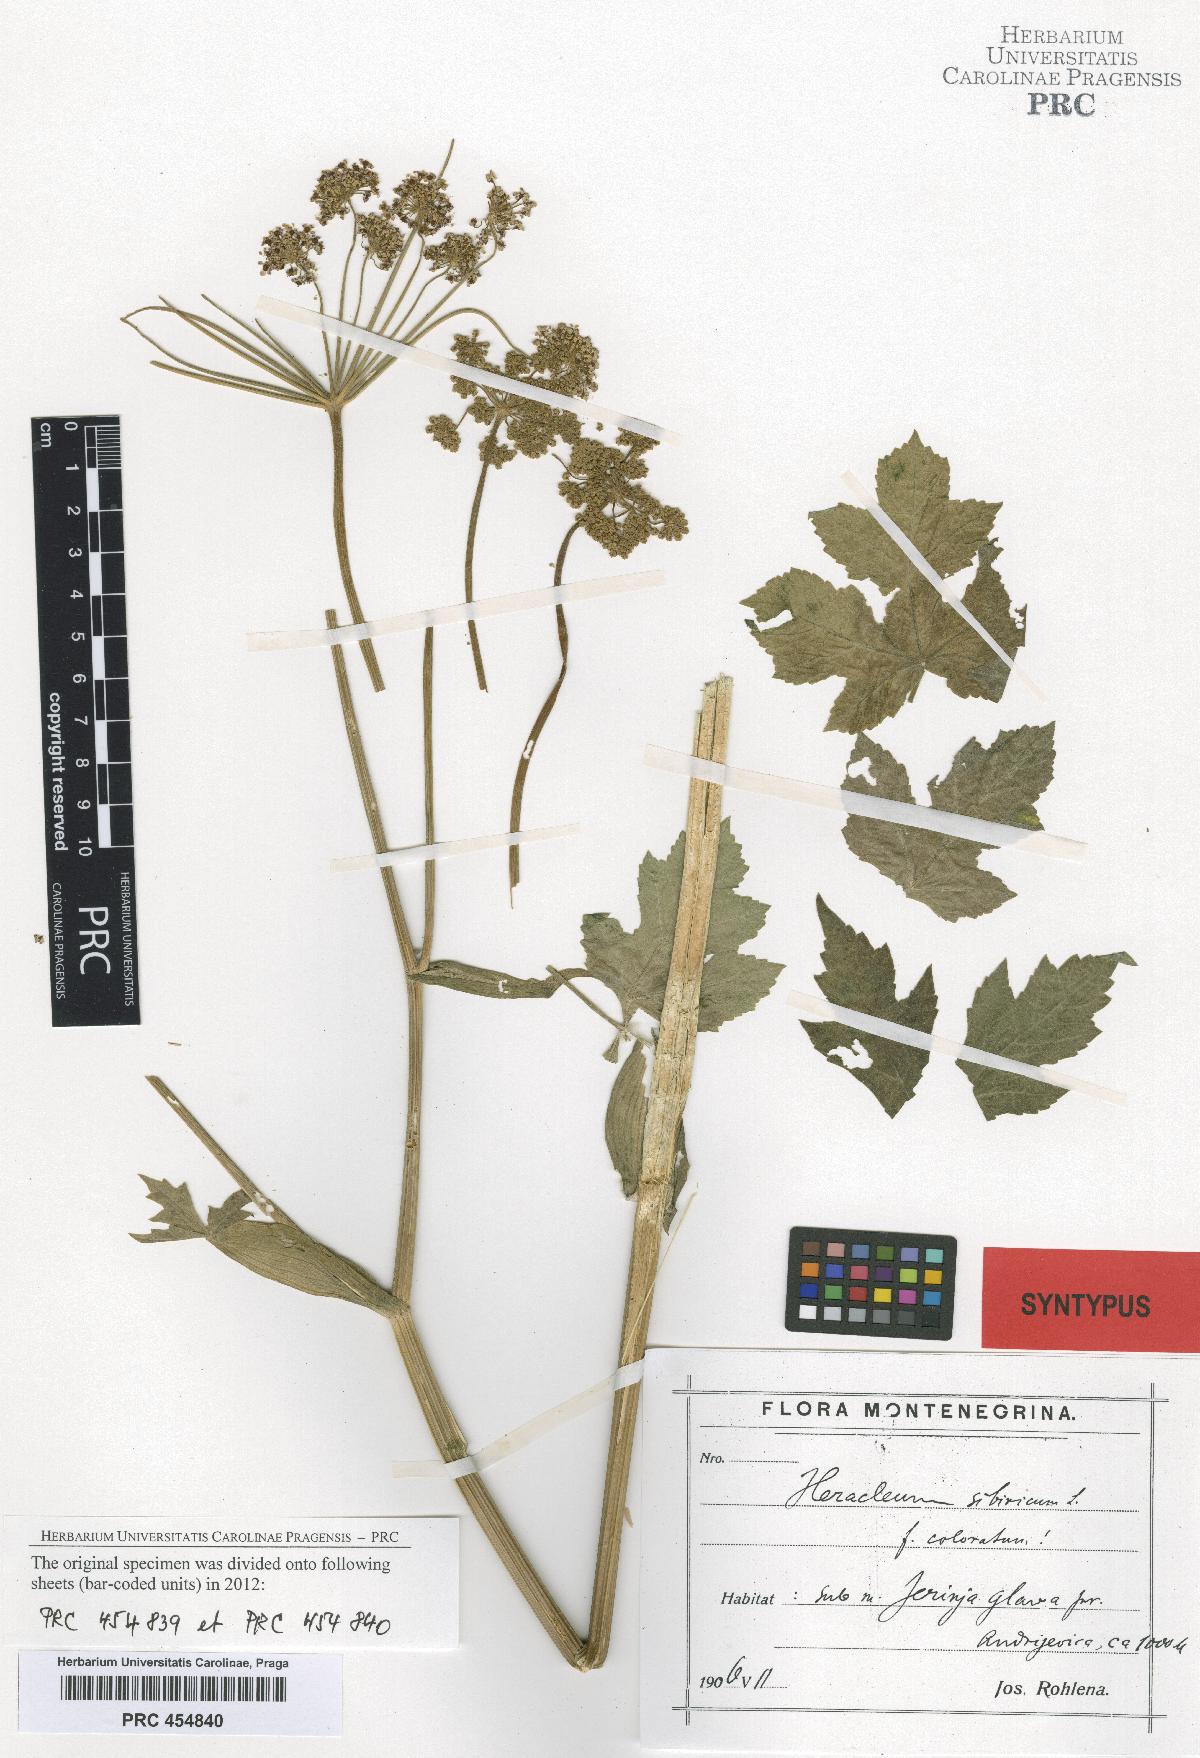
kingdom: Plantae
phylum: Tracheophyta
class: Magnoliopsida
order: Apiales
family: Apiaceae
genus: Heracleum
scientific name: Heracleum sphondylium
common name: Hogweed
